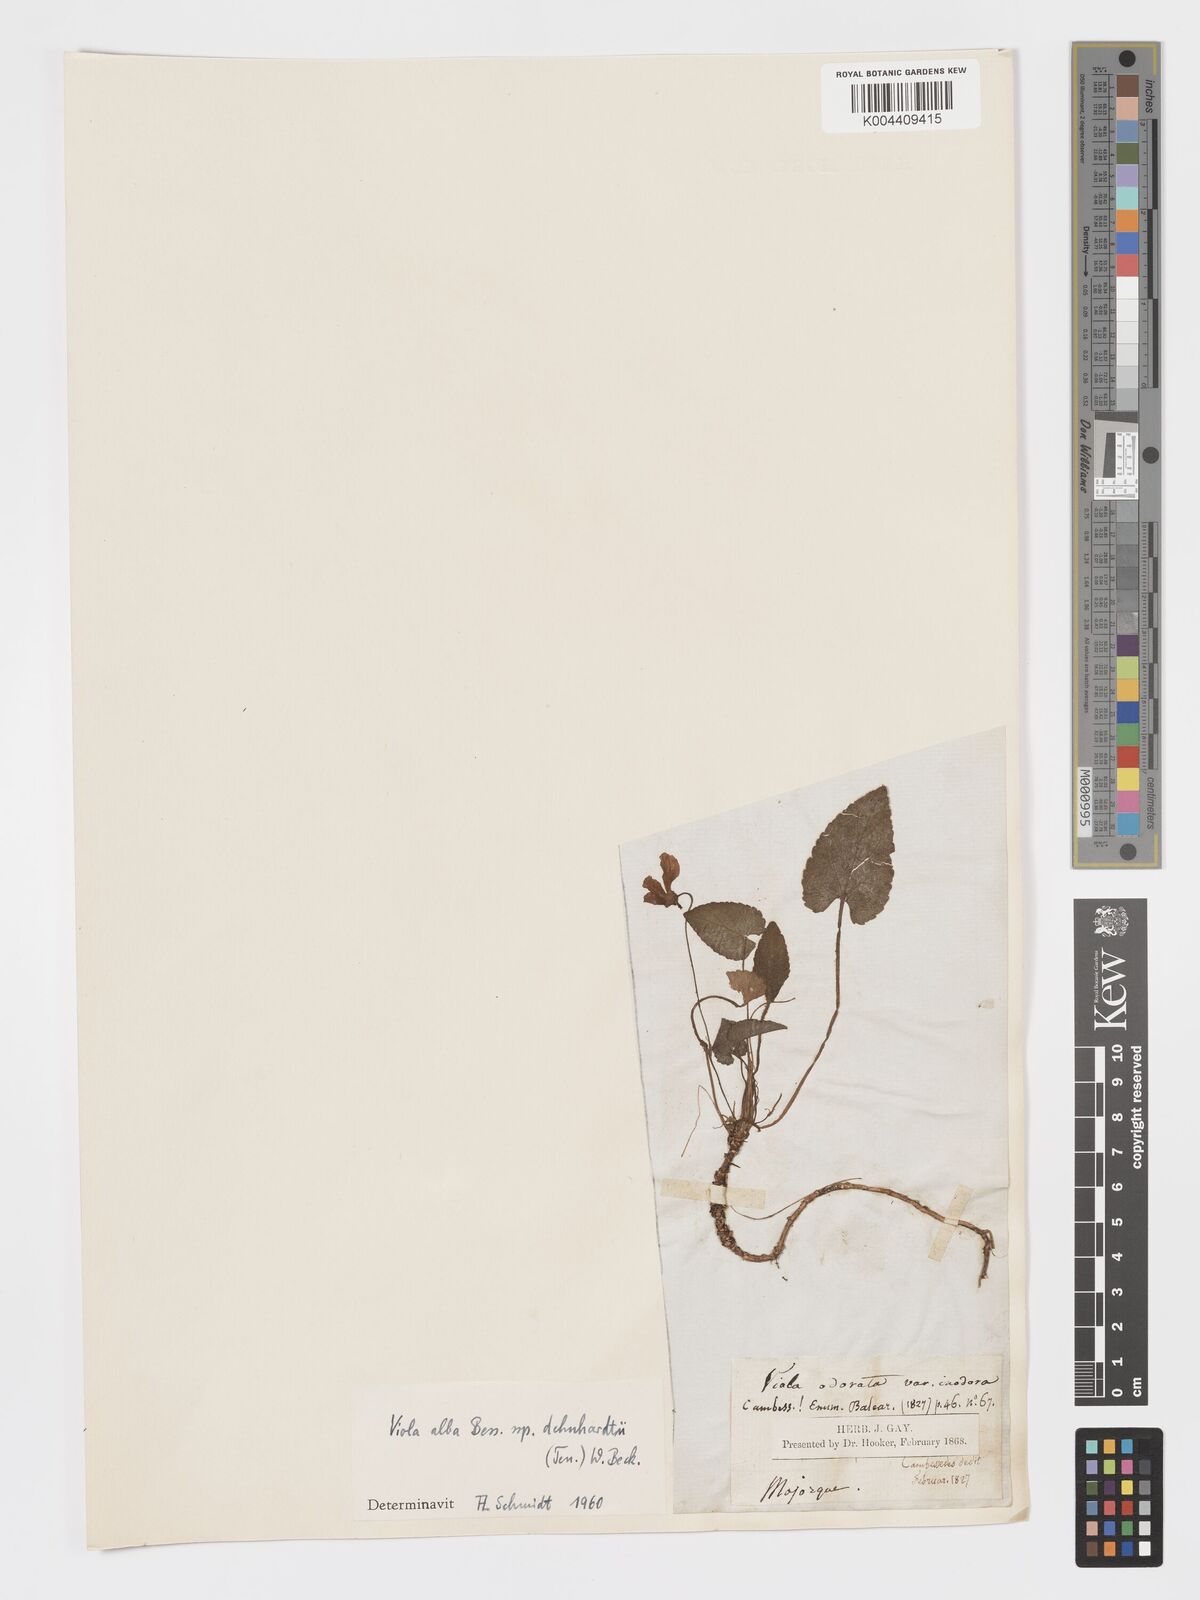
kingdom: Plantae
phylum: Tracheophyta
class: Magnoliopsida
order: Malpighiales
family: Violaceae
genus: Viola
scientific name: Viola alba
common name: White violet
